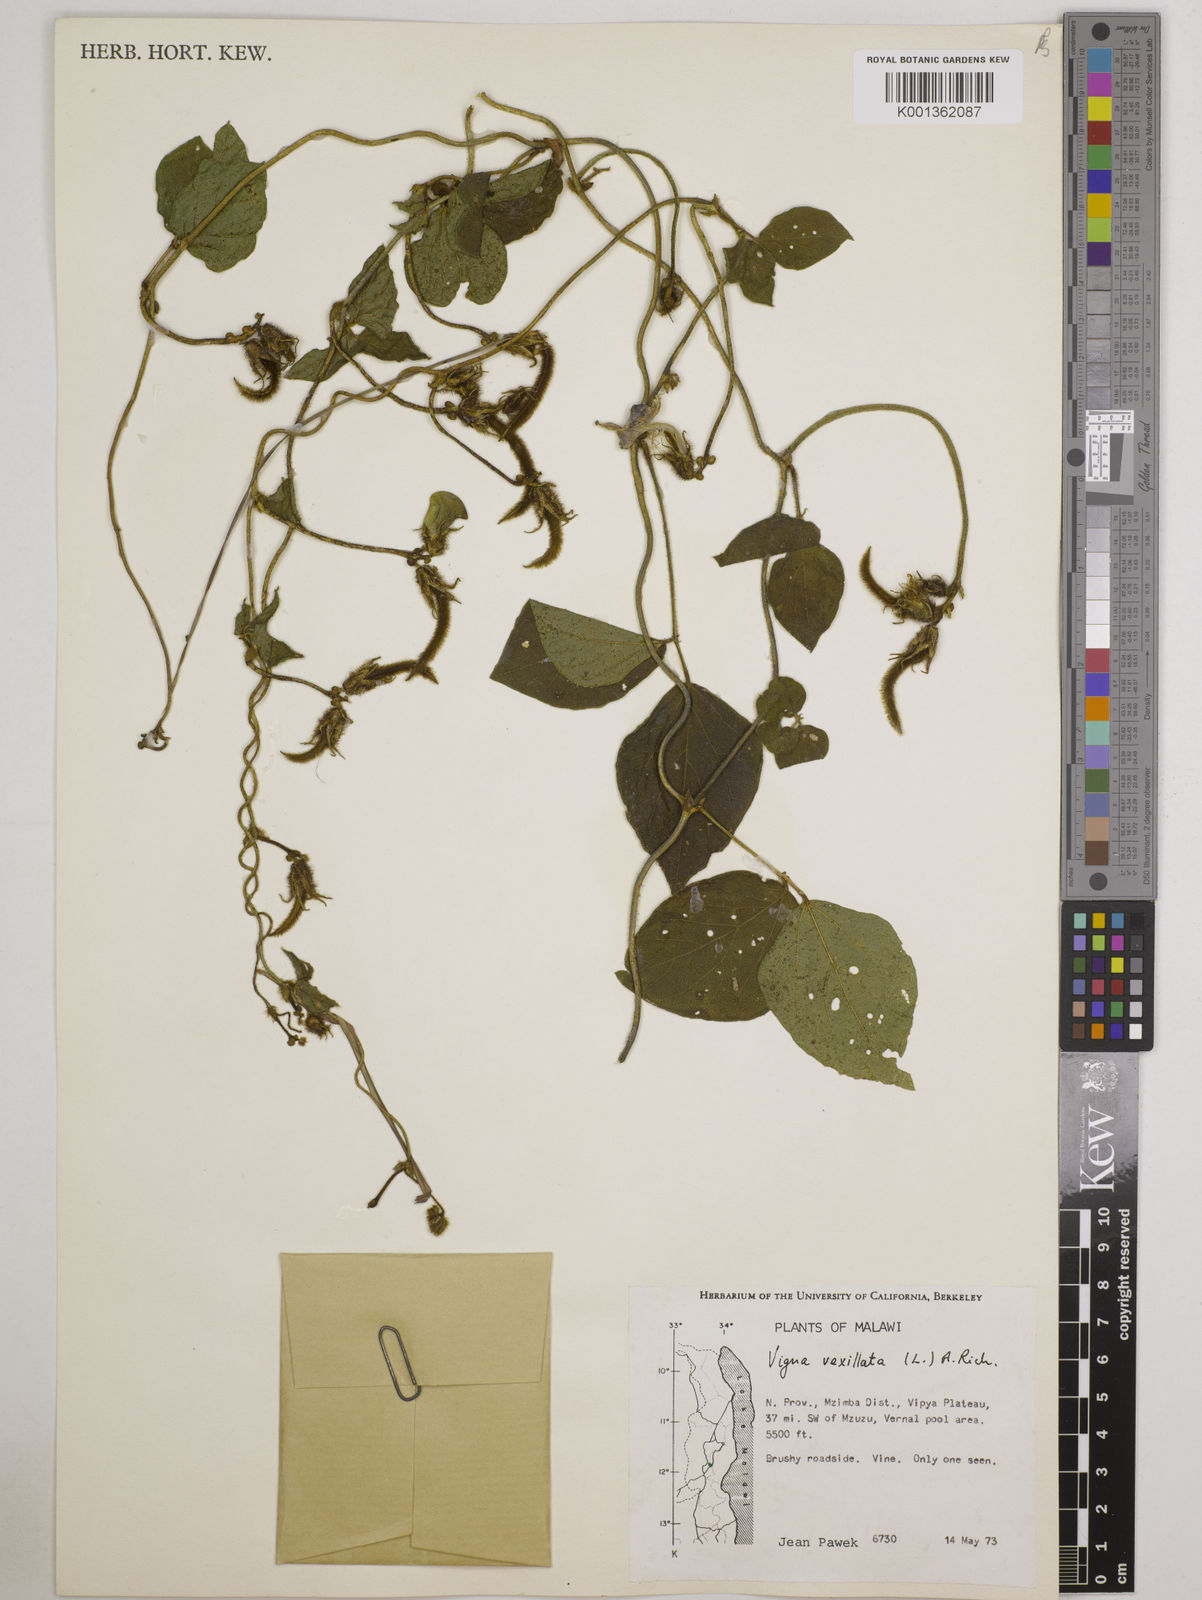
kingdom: Plantae
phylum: Tracheophyta
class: Magnoliopsida
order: Fabales
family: Fabaceae
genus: Vigna
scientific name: Vigna vexillata
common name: Zombi pea
